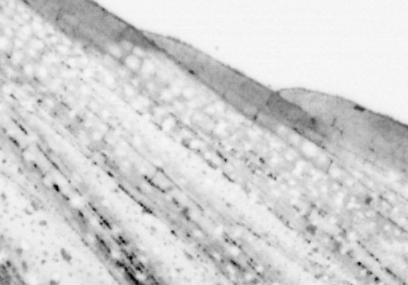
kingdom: Animalia
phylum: Chordata
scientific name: Chordata
